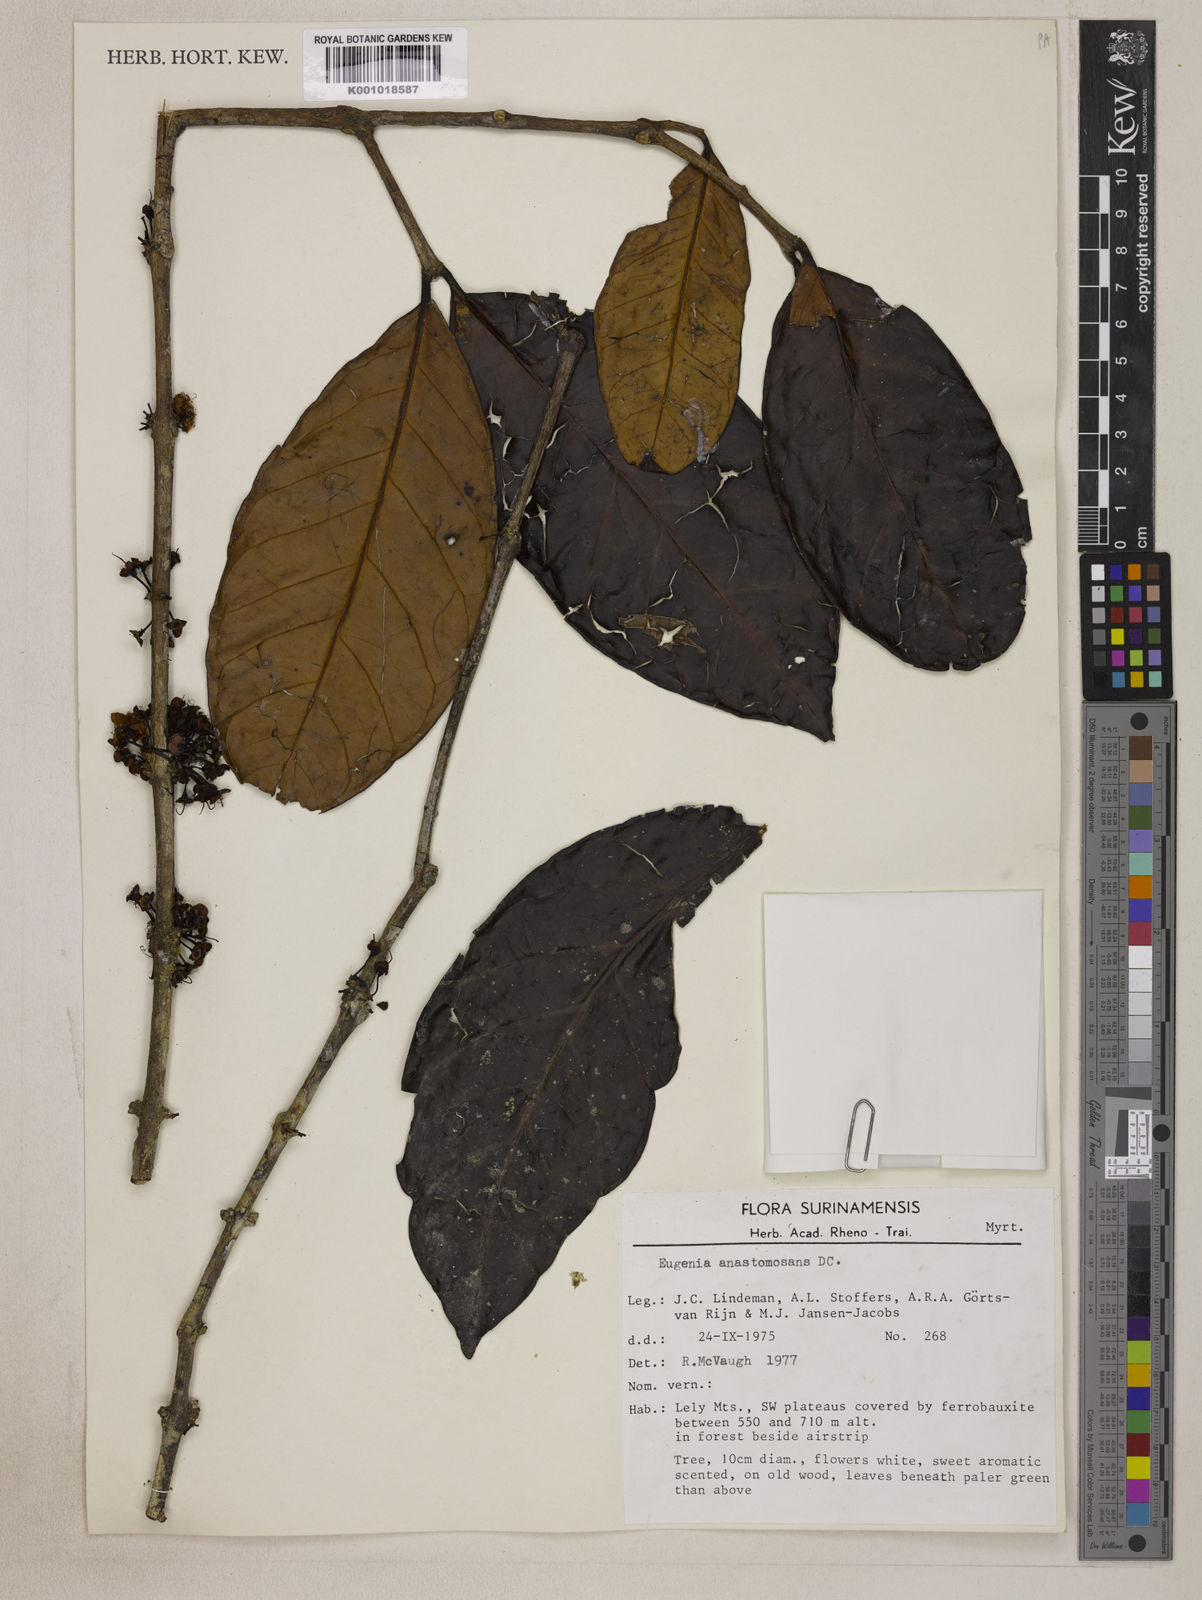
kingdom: Plantae
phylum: Tracheophyta
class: Magnoliopsida
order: Myrtales
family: Myrtaceae
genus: Eugenia
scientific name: Eugenia anastomosans
